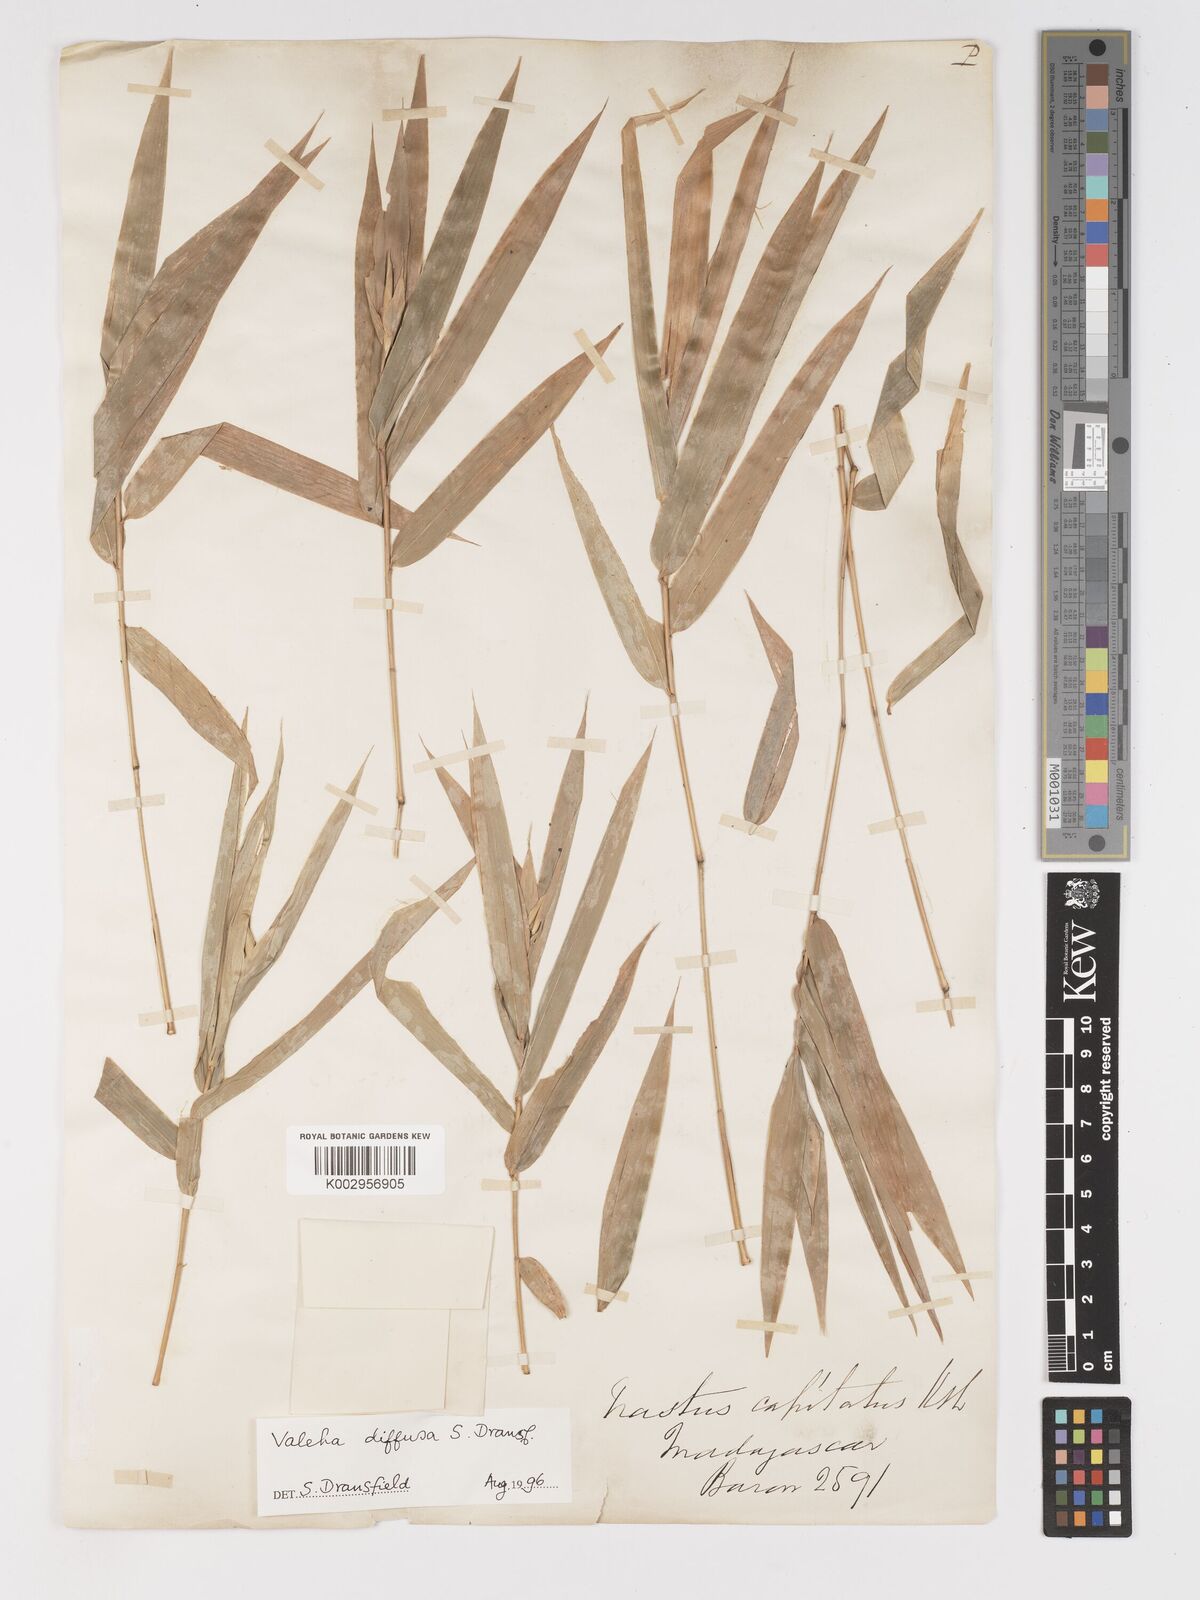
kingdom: Plantae
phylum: Tracheophyta
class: Liliopsida
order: Poales
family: Poaceae
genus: Valiha
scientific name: Valiha diffusa
